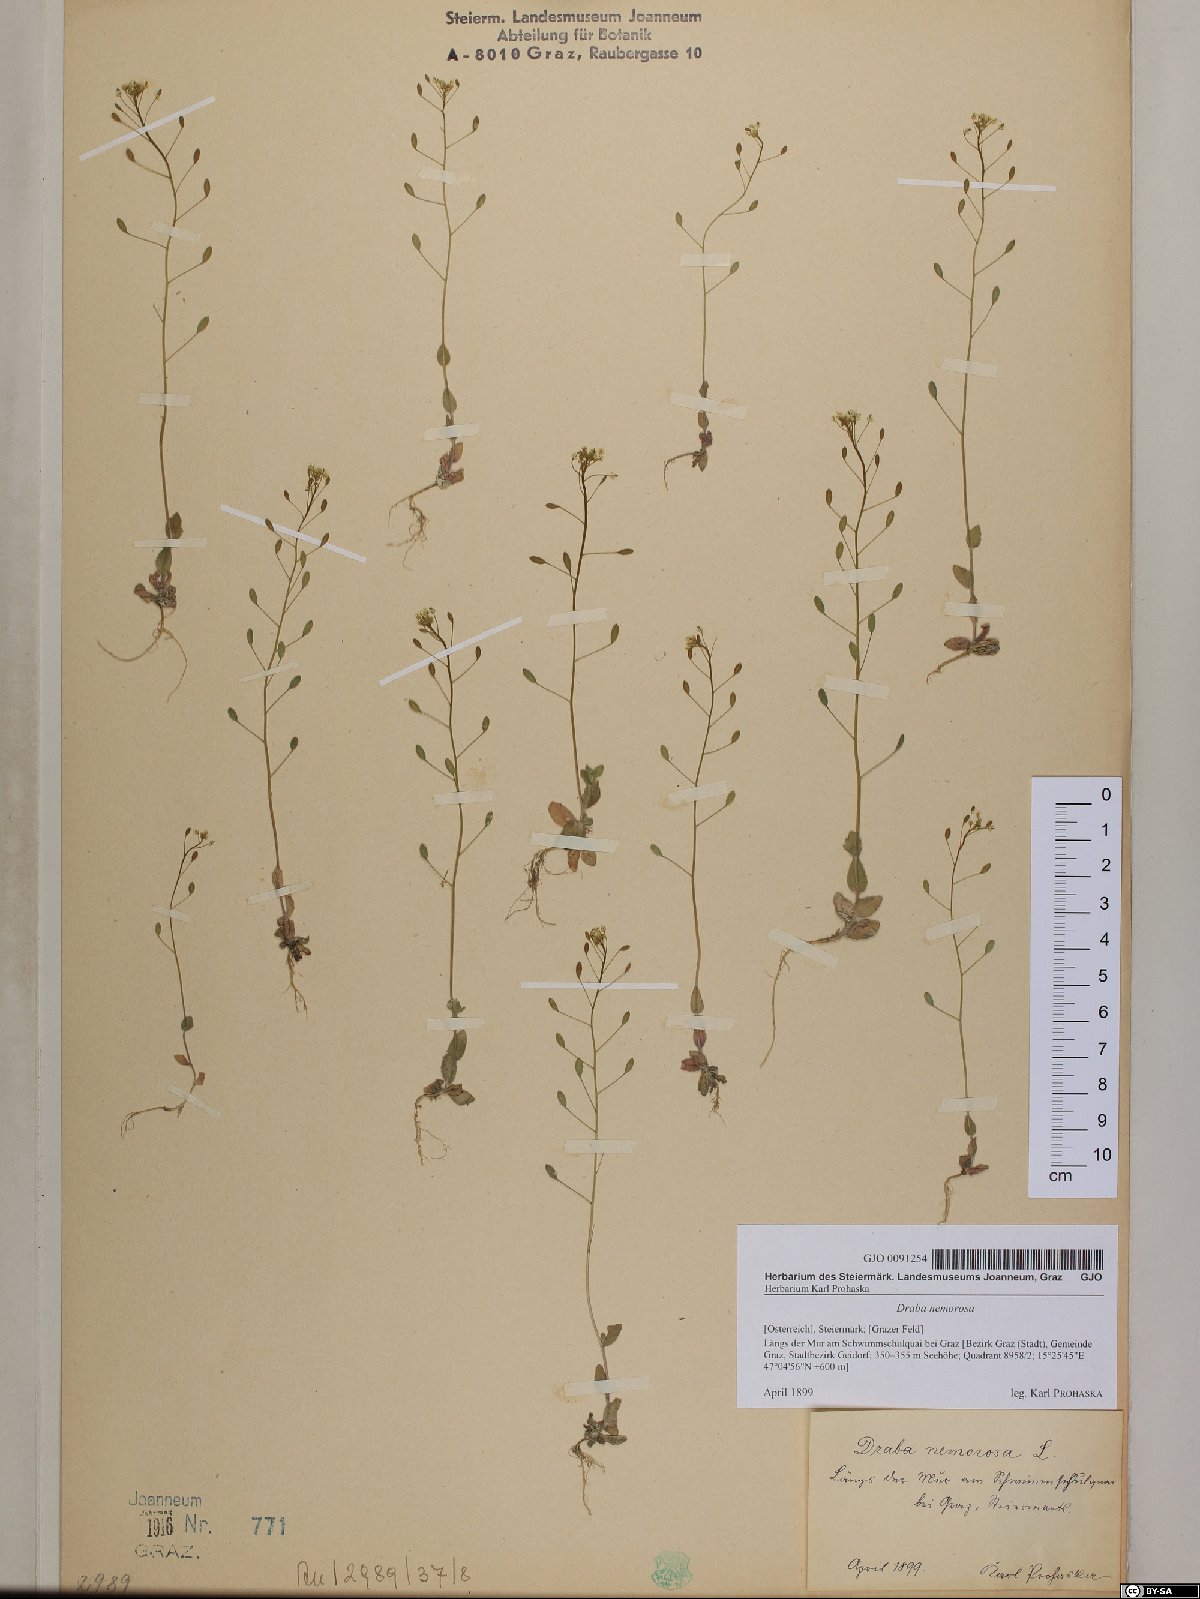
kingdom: Plantae
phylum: Tracheophyta
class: Magnoliopsida
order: Brassicales
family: Brassicaceae
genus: Draba
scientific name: Draba nemorosa
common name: Wood whitlow-grass
